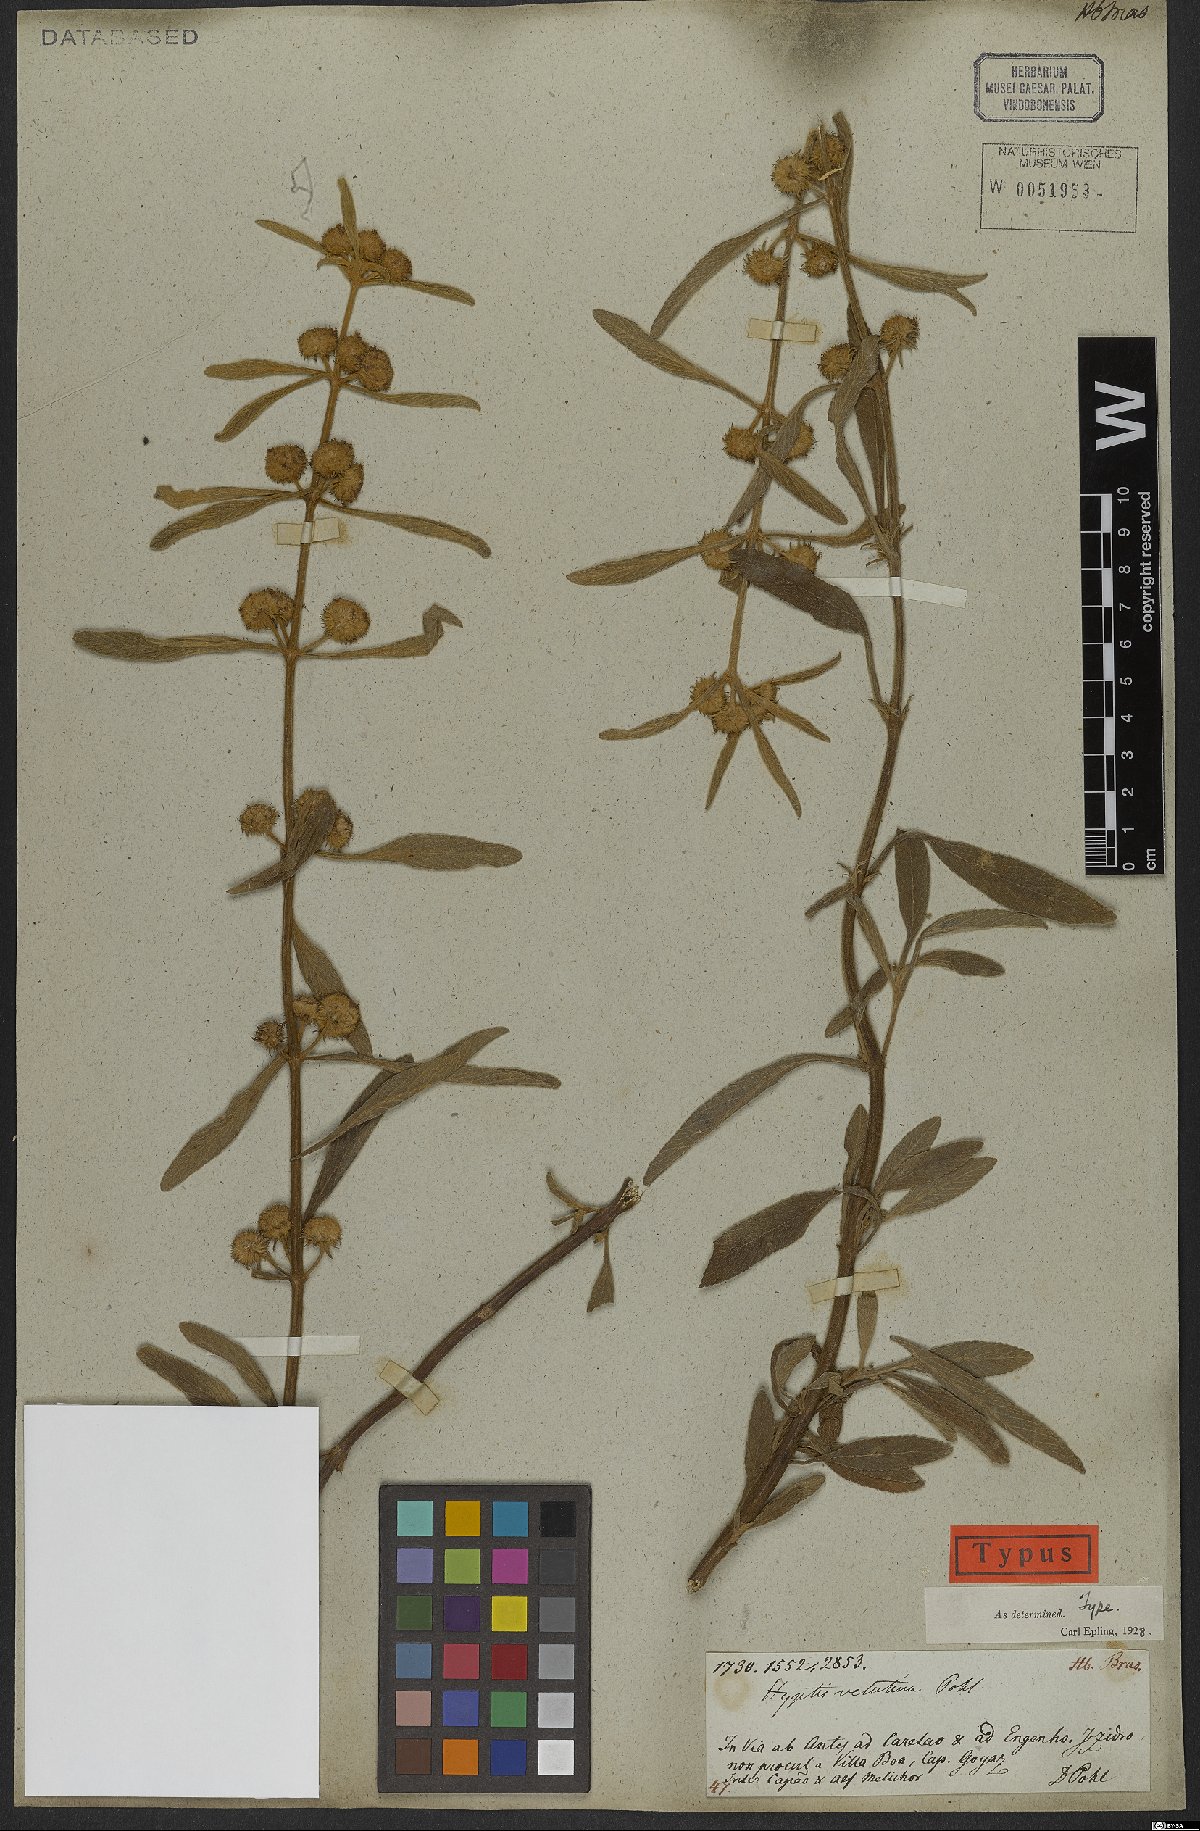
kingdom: Plantae
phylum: Tracheophyta
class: Magnoliopsida
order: Lamiales
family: Lamiaceae
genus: Hyptis
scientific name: Hyptis velutina
